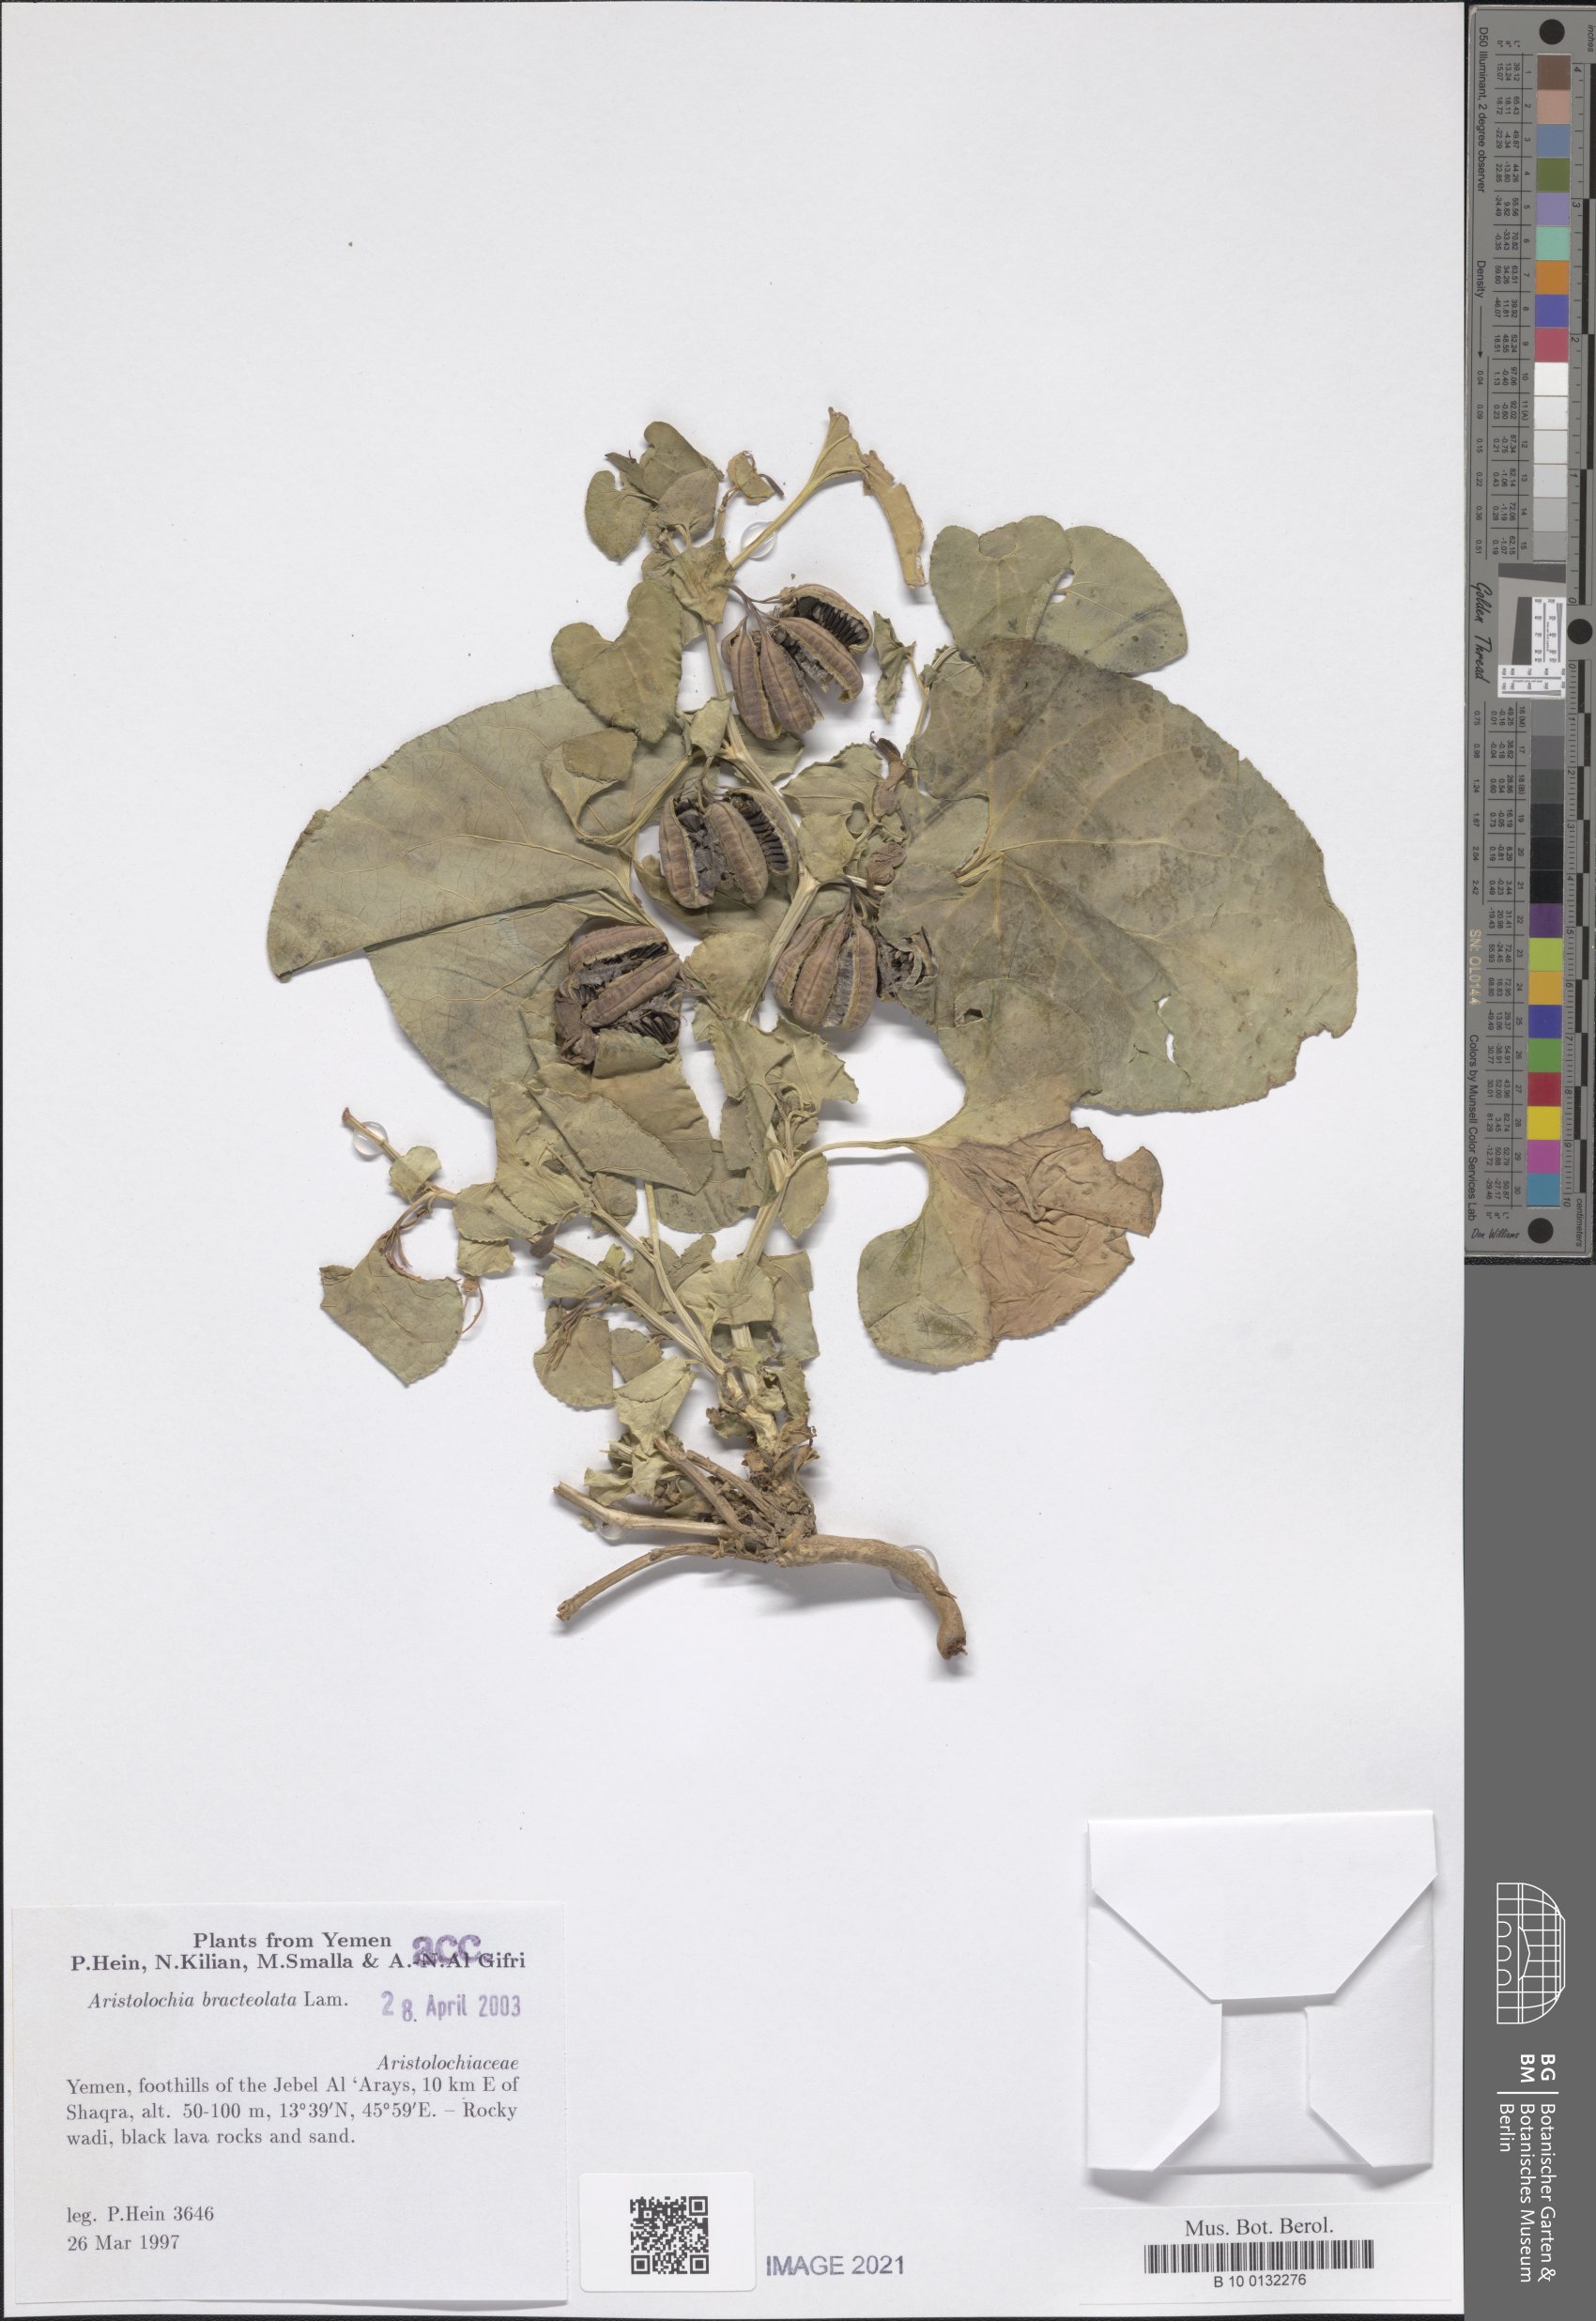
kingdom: Plantae
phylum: Tracheophyta
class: Magnoliopsida
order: Piperales
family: Aristolochiaceae
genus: Aristolochia
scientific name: Aristolochia bracteolata
